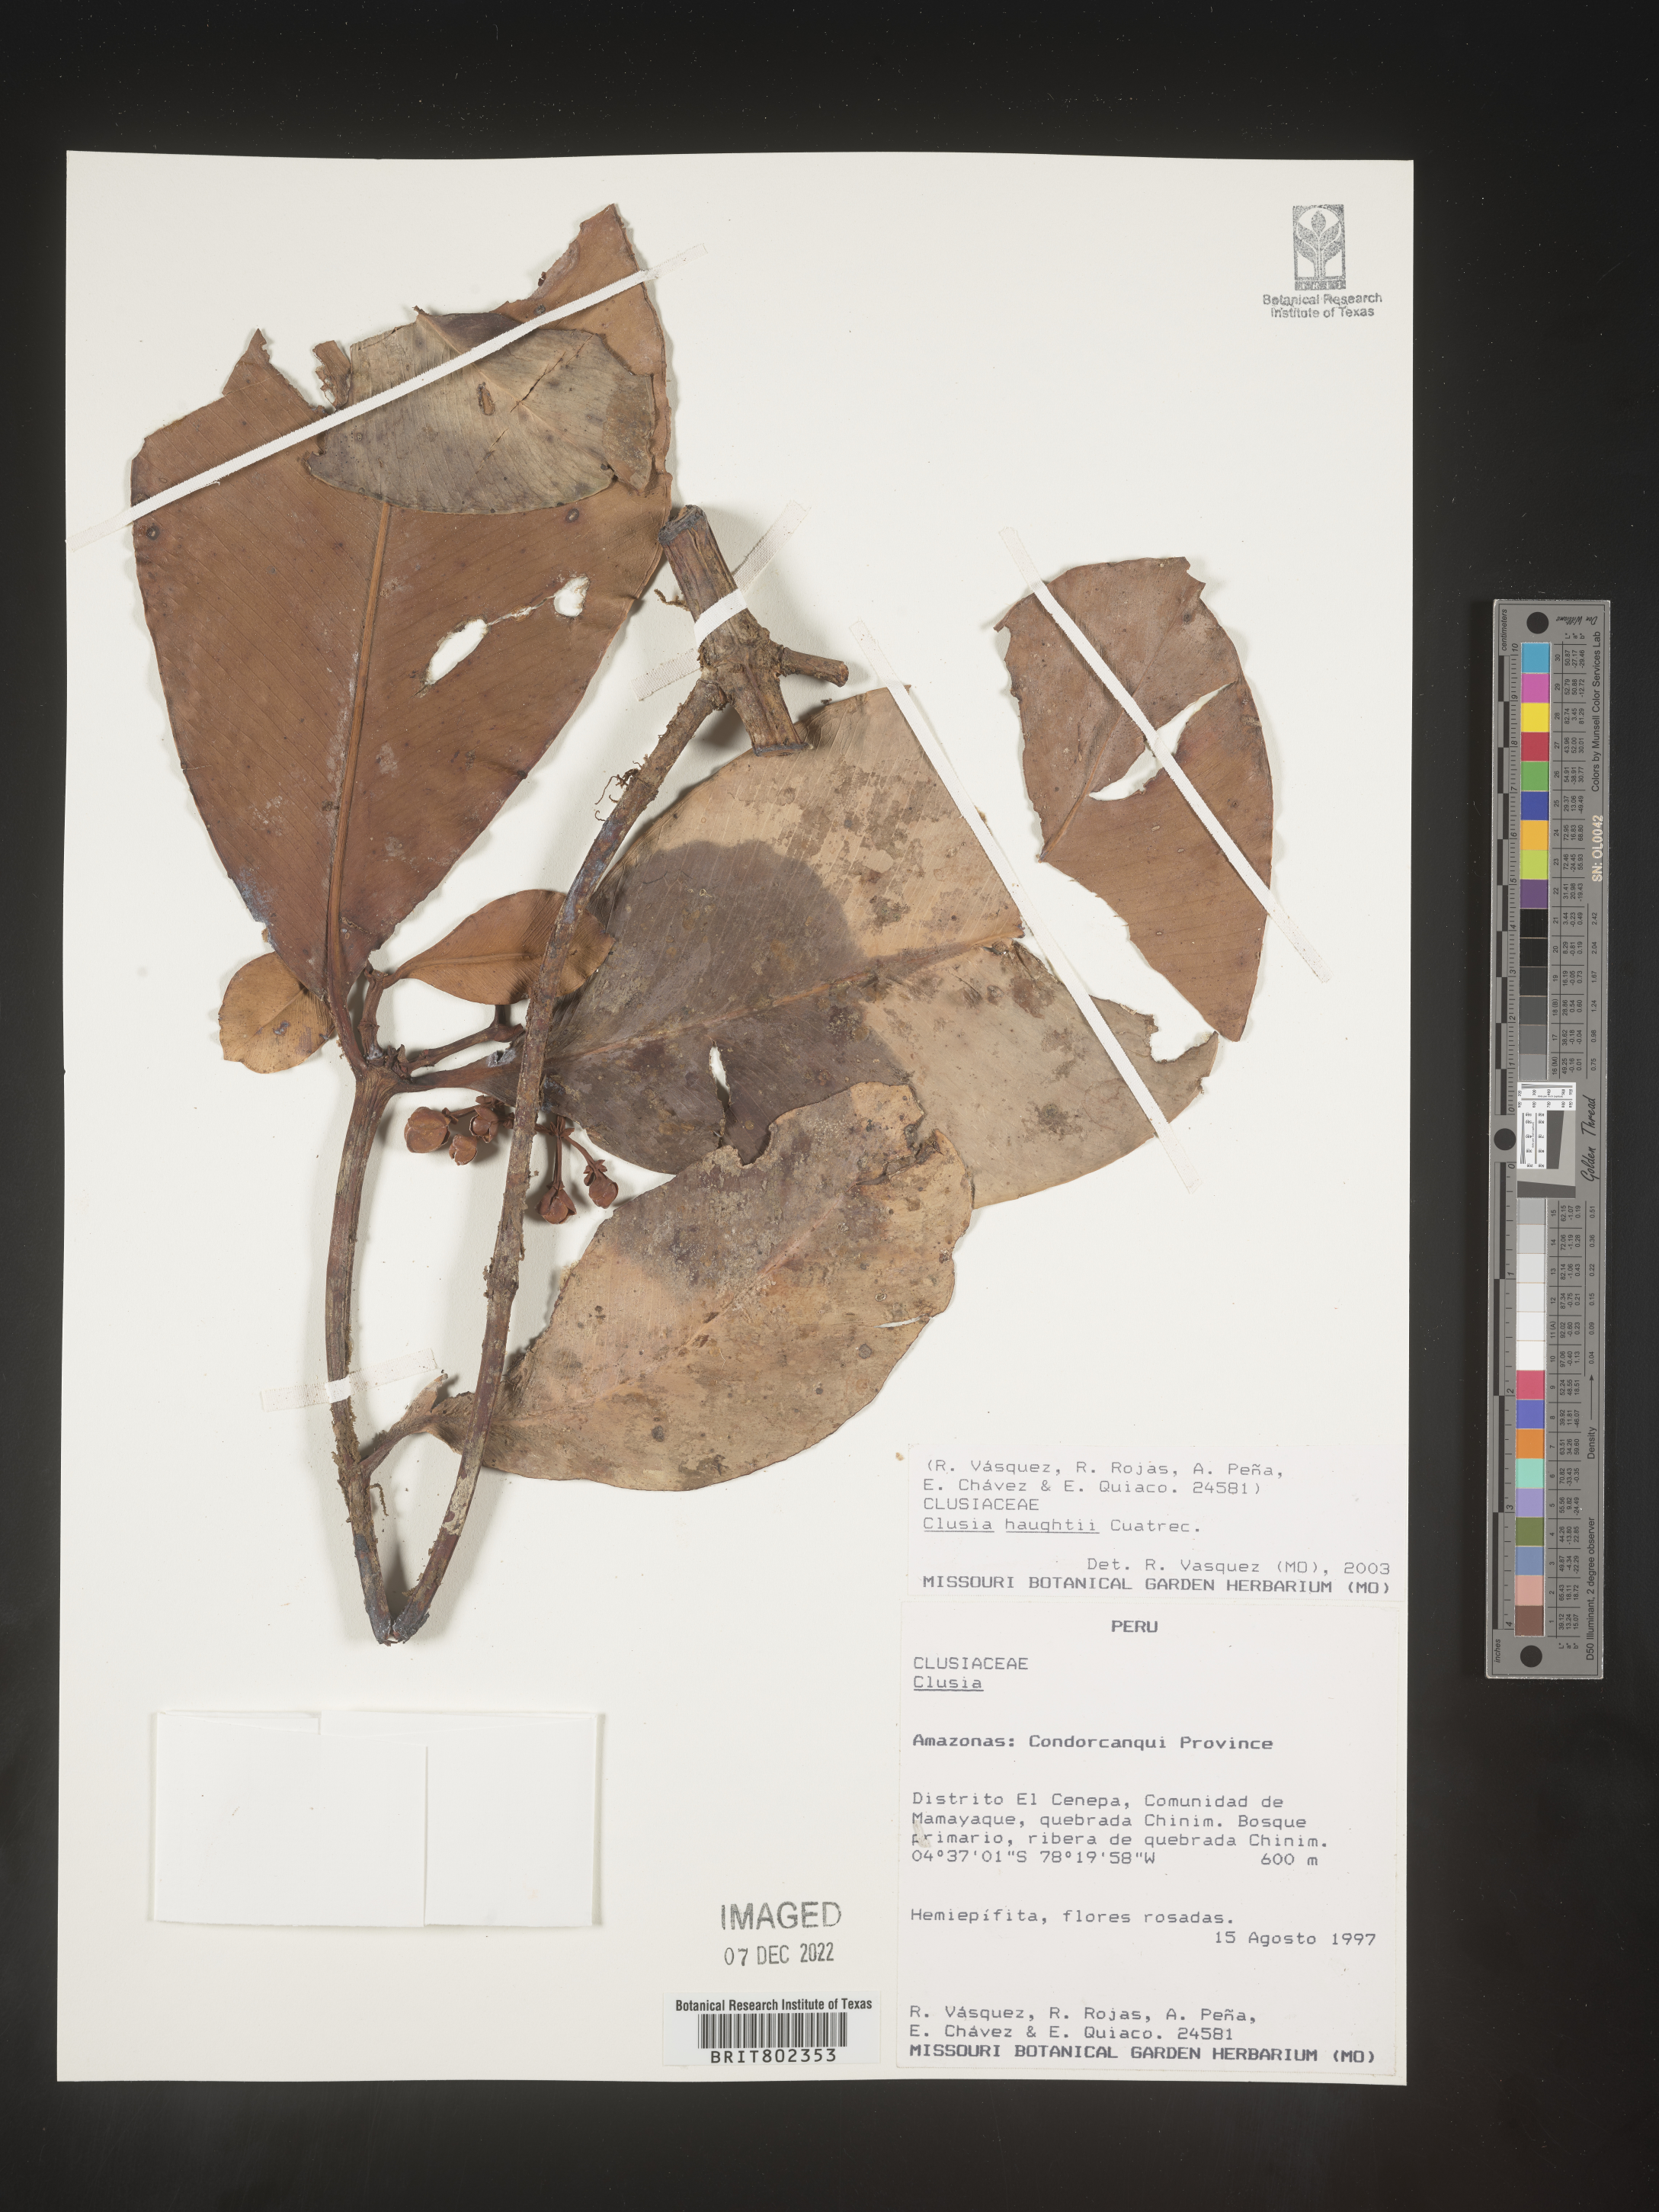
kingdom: Plantae
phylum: Tracheophyta
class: Magnoliopsida
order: Malpighiales
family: Clusiaceae
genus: Clusia
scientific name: Clusia
